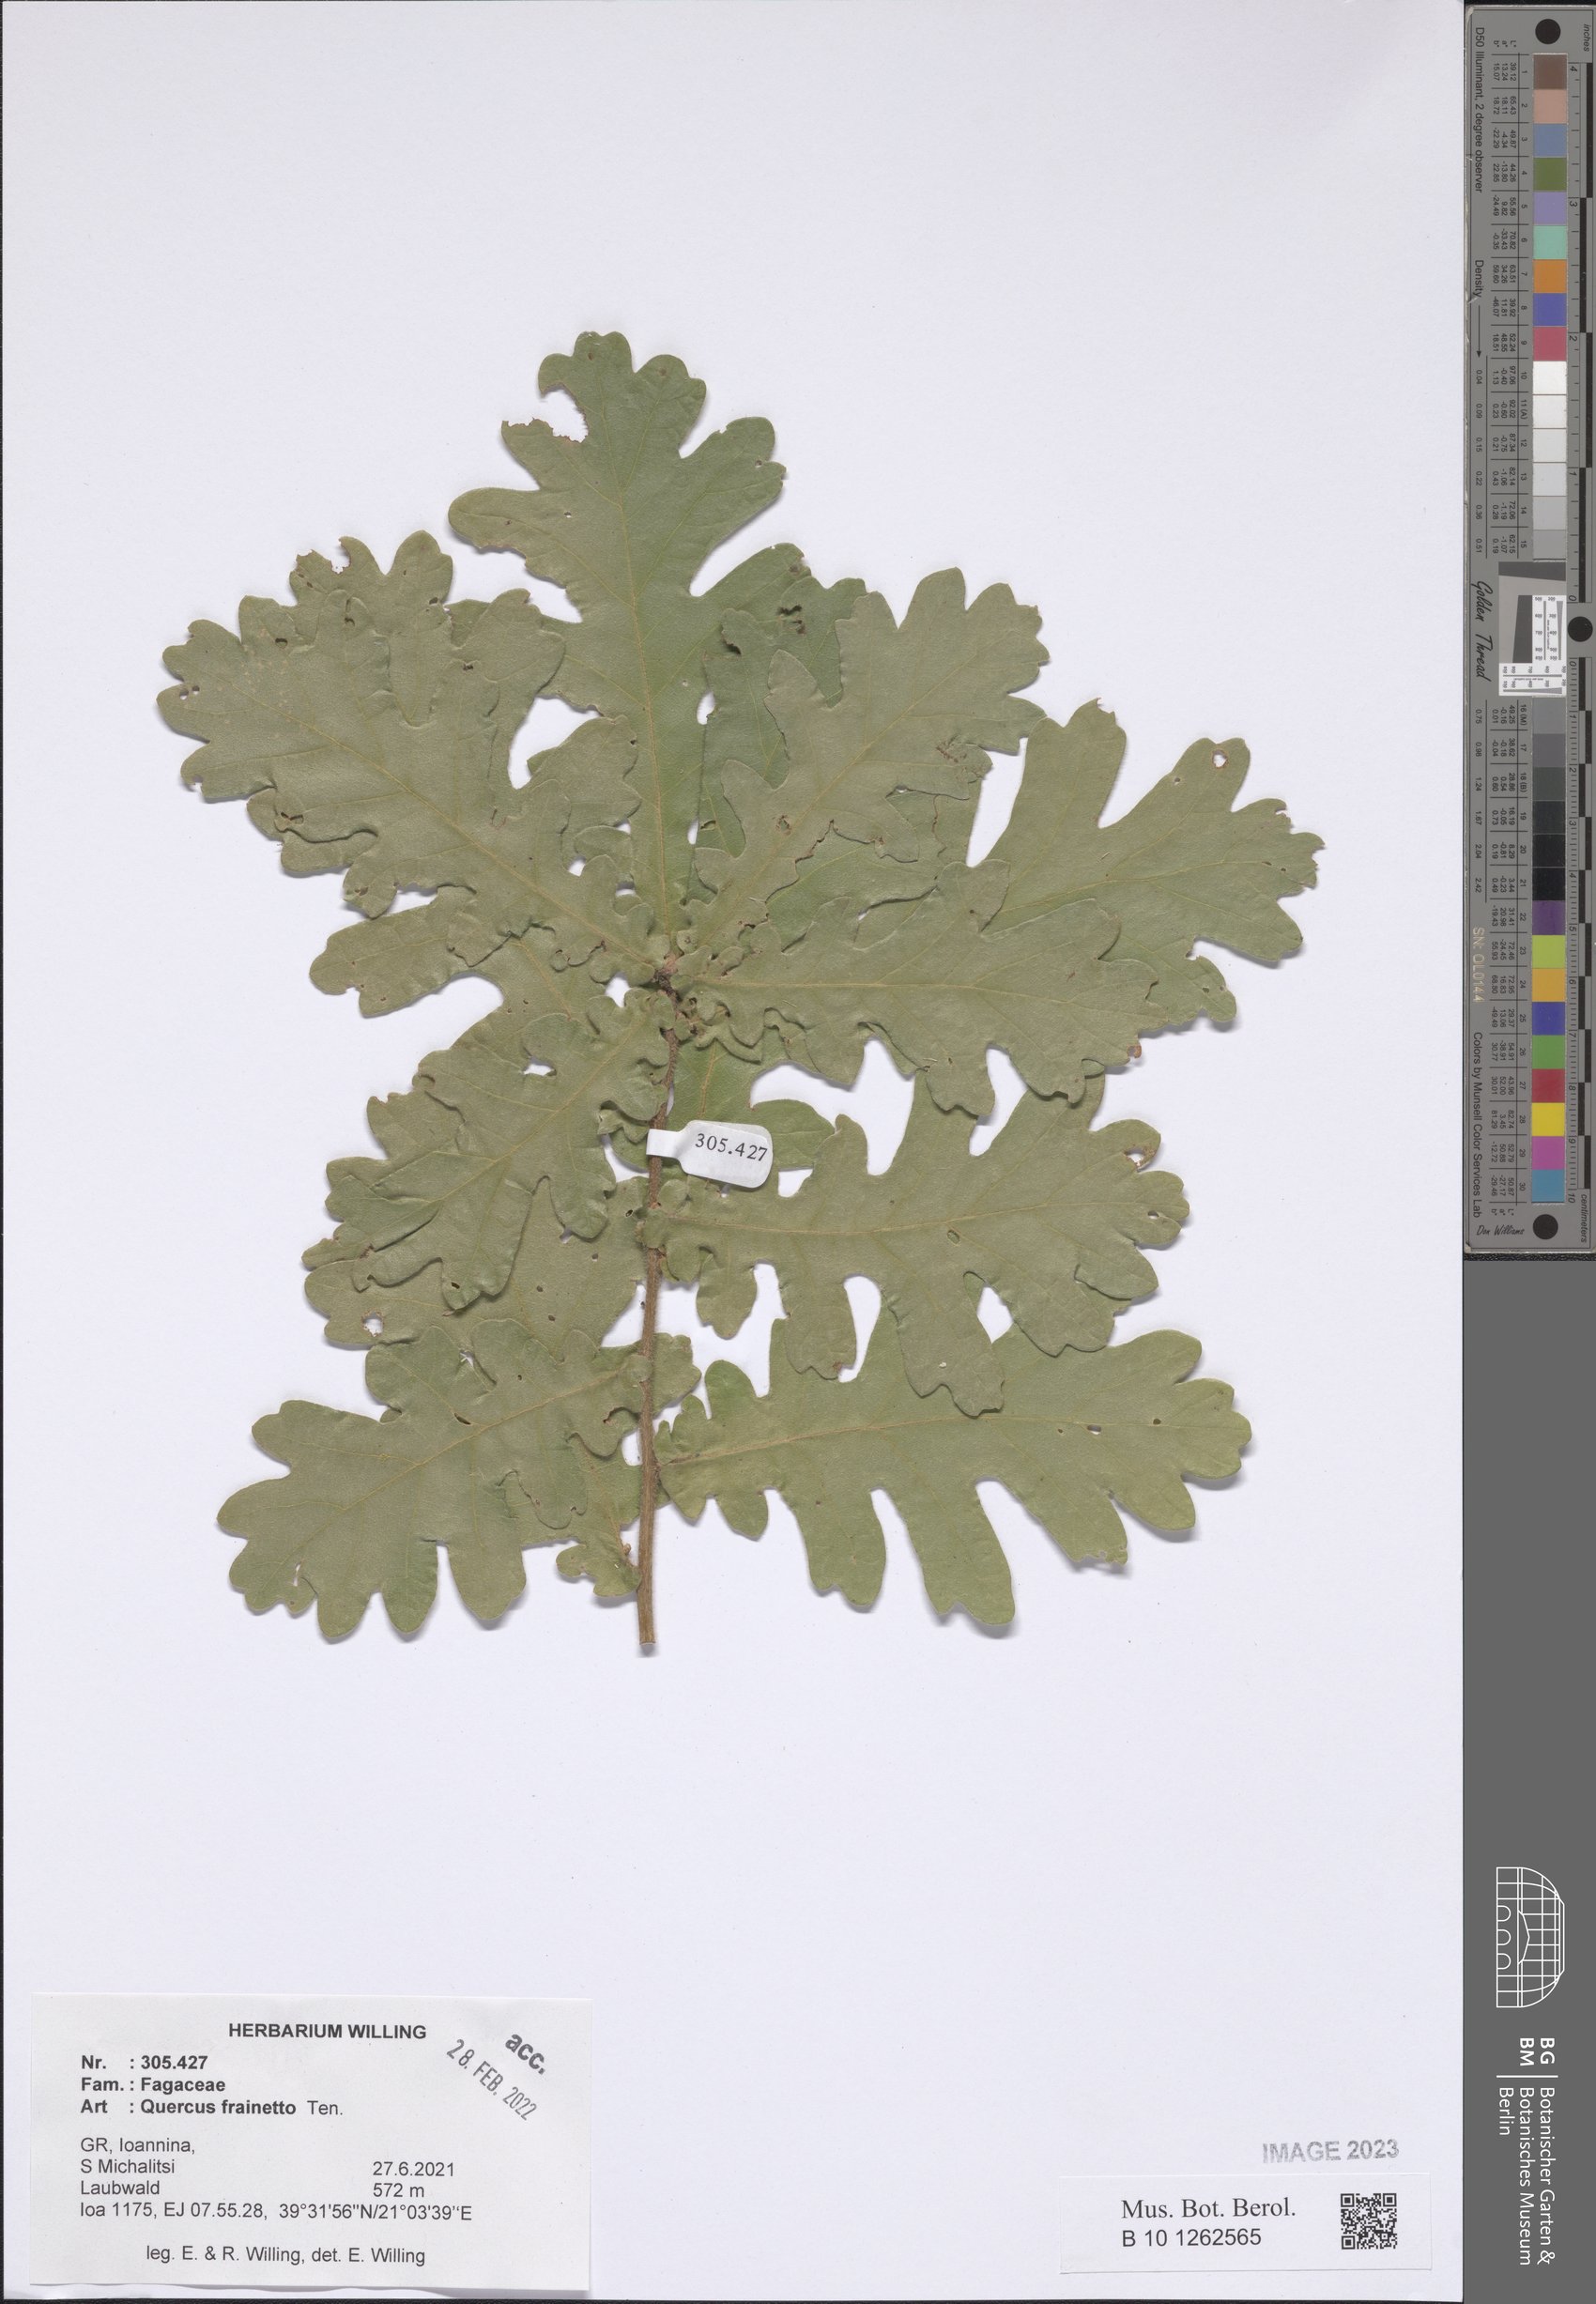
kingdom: Plantae
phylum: Tracheophyta
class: Magnoliopsida
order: Fagales
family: Fagaceae
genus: Quercus
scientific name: Quercus conferta
